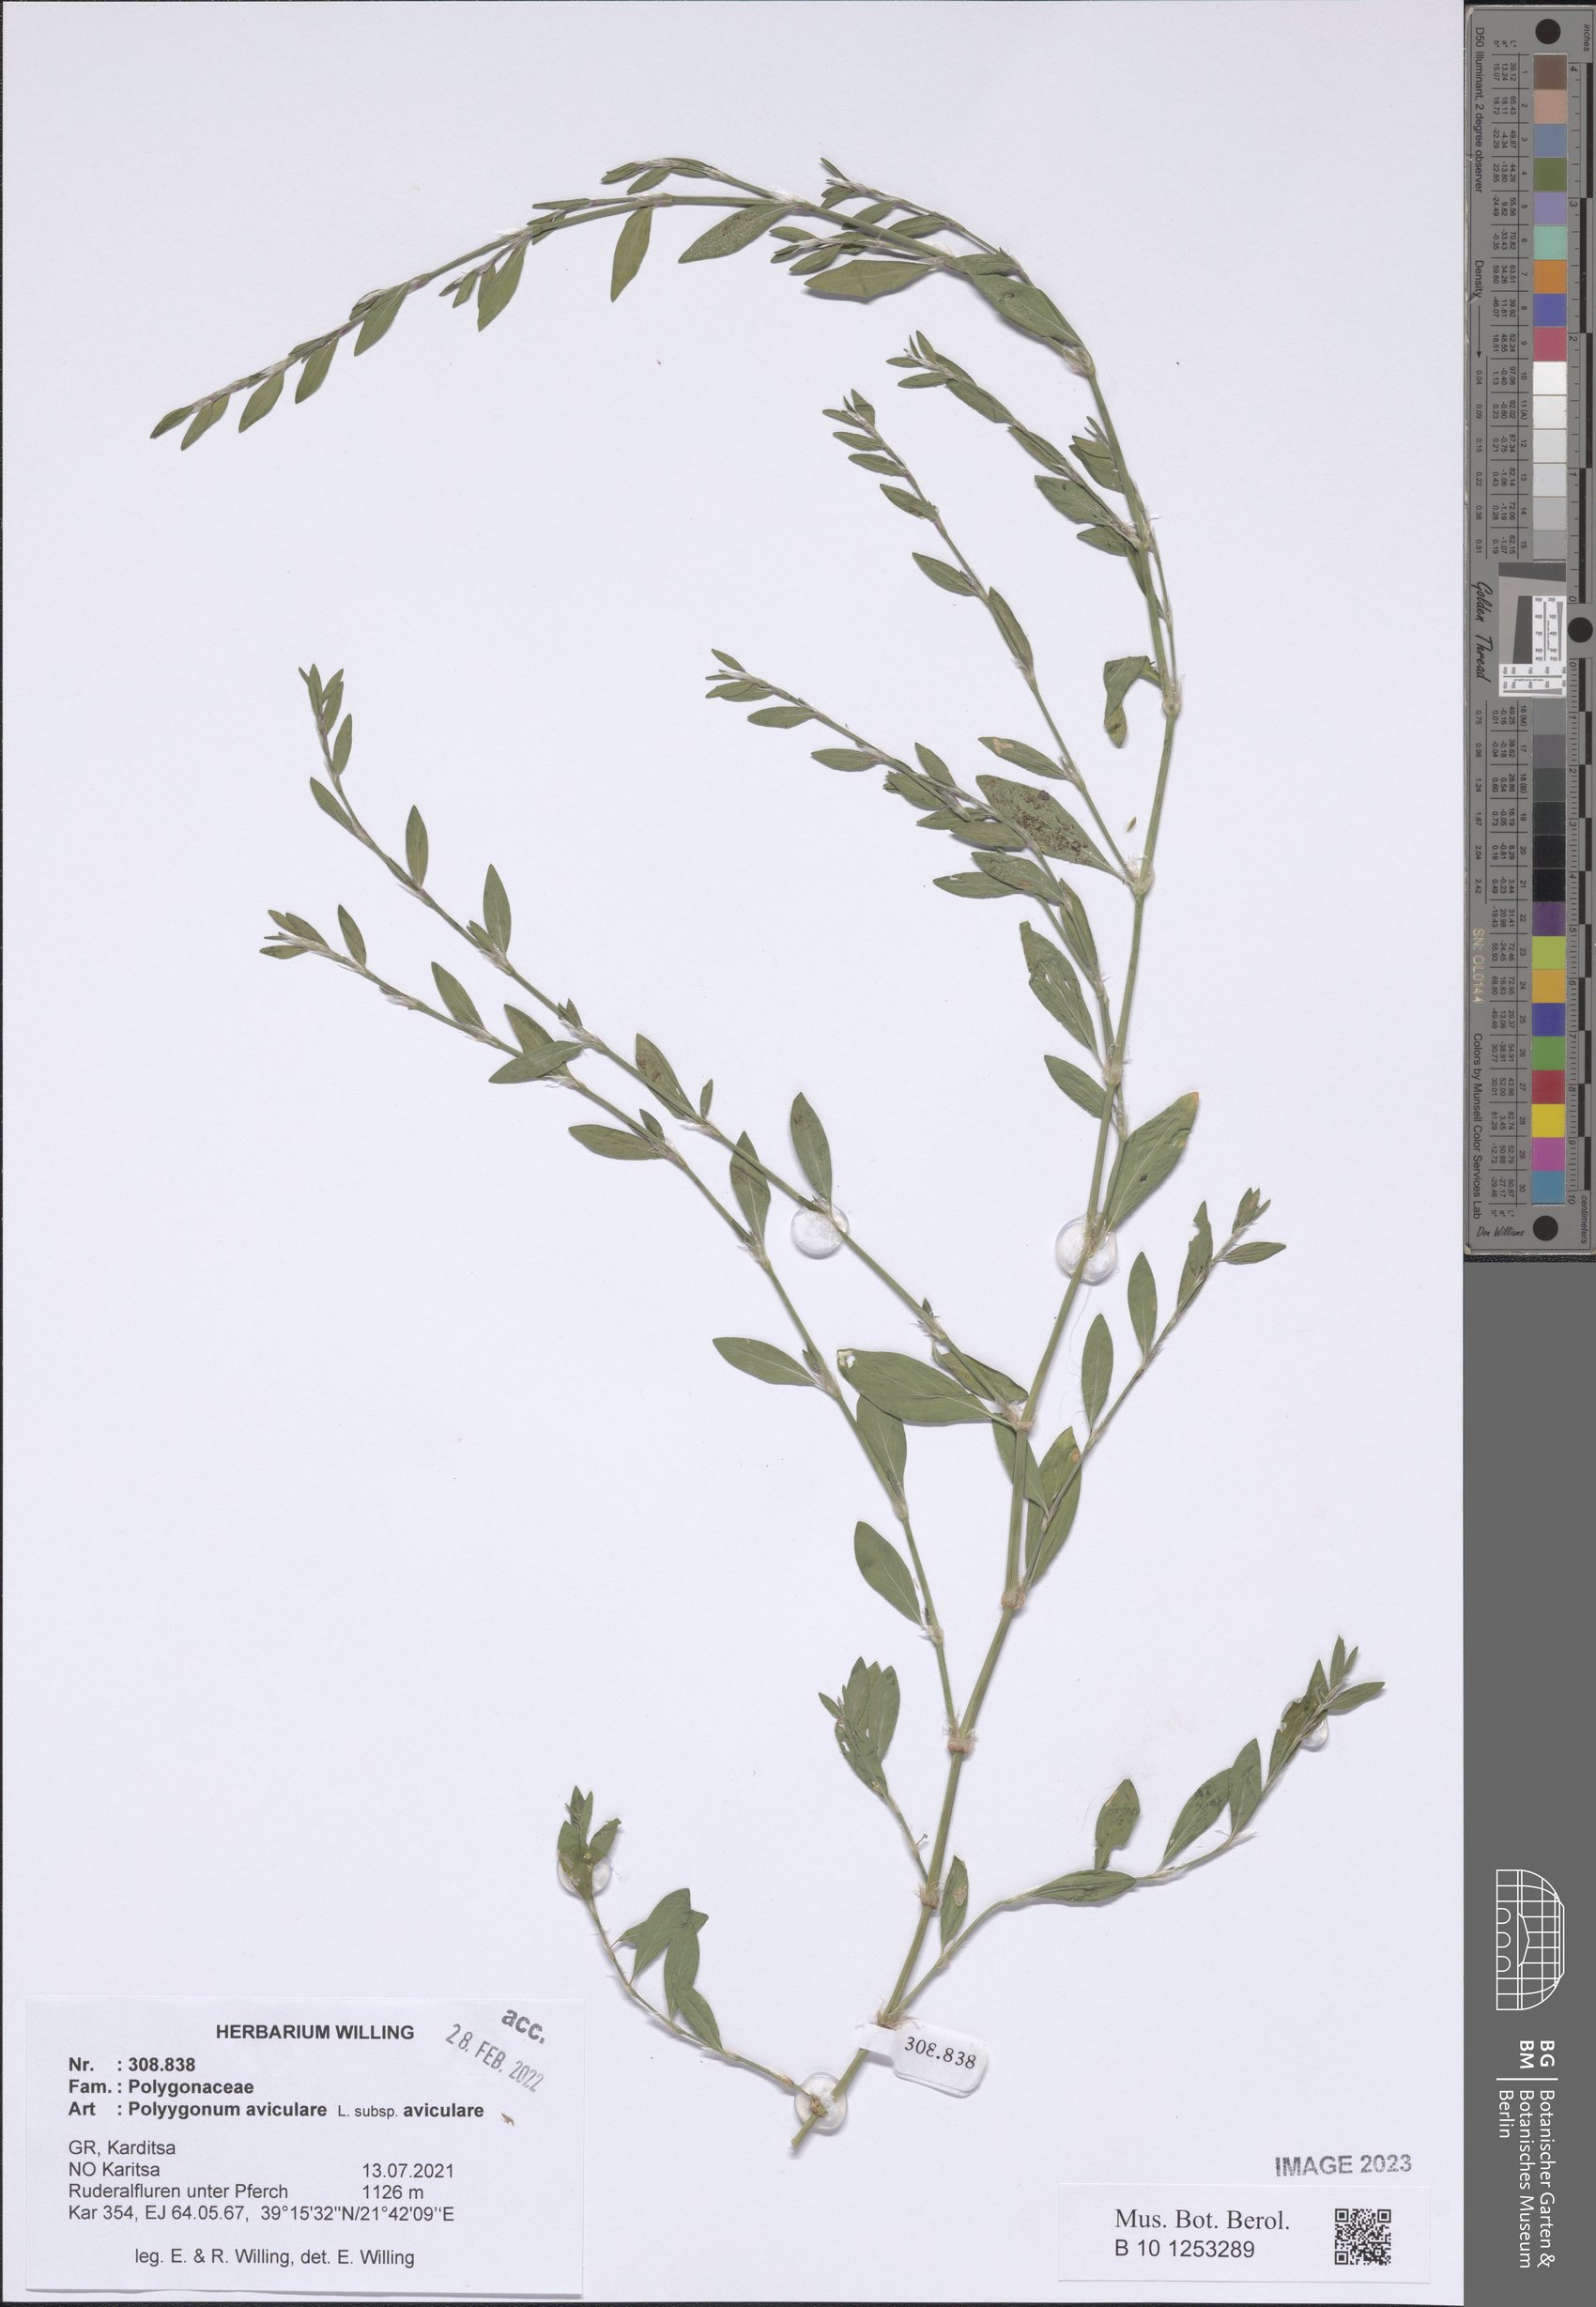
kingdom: Plantae
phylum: Tracheophyta
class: Magnoliopsida
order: Caryophyllales
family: Polygonaceae
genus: Polygonum
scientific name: Polygonum aviculare
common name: Prostrate knotweed
